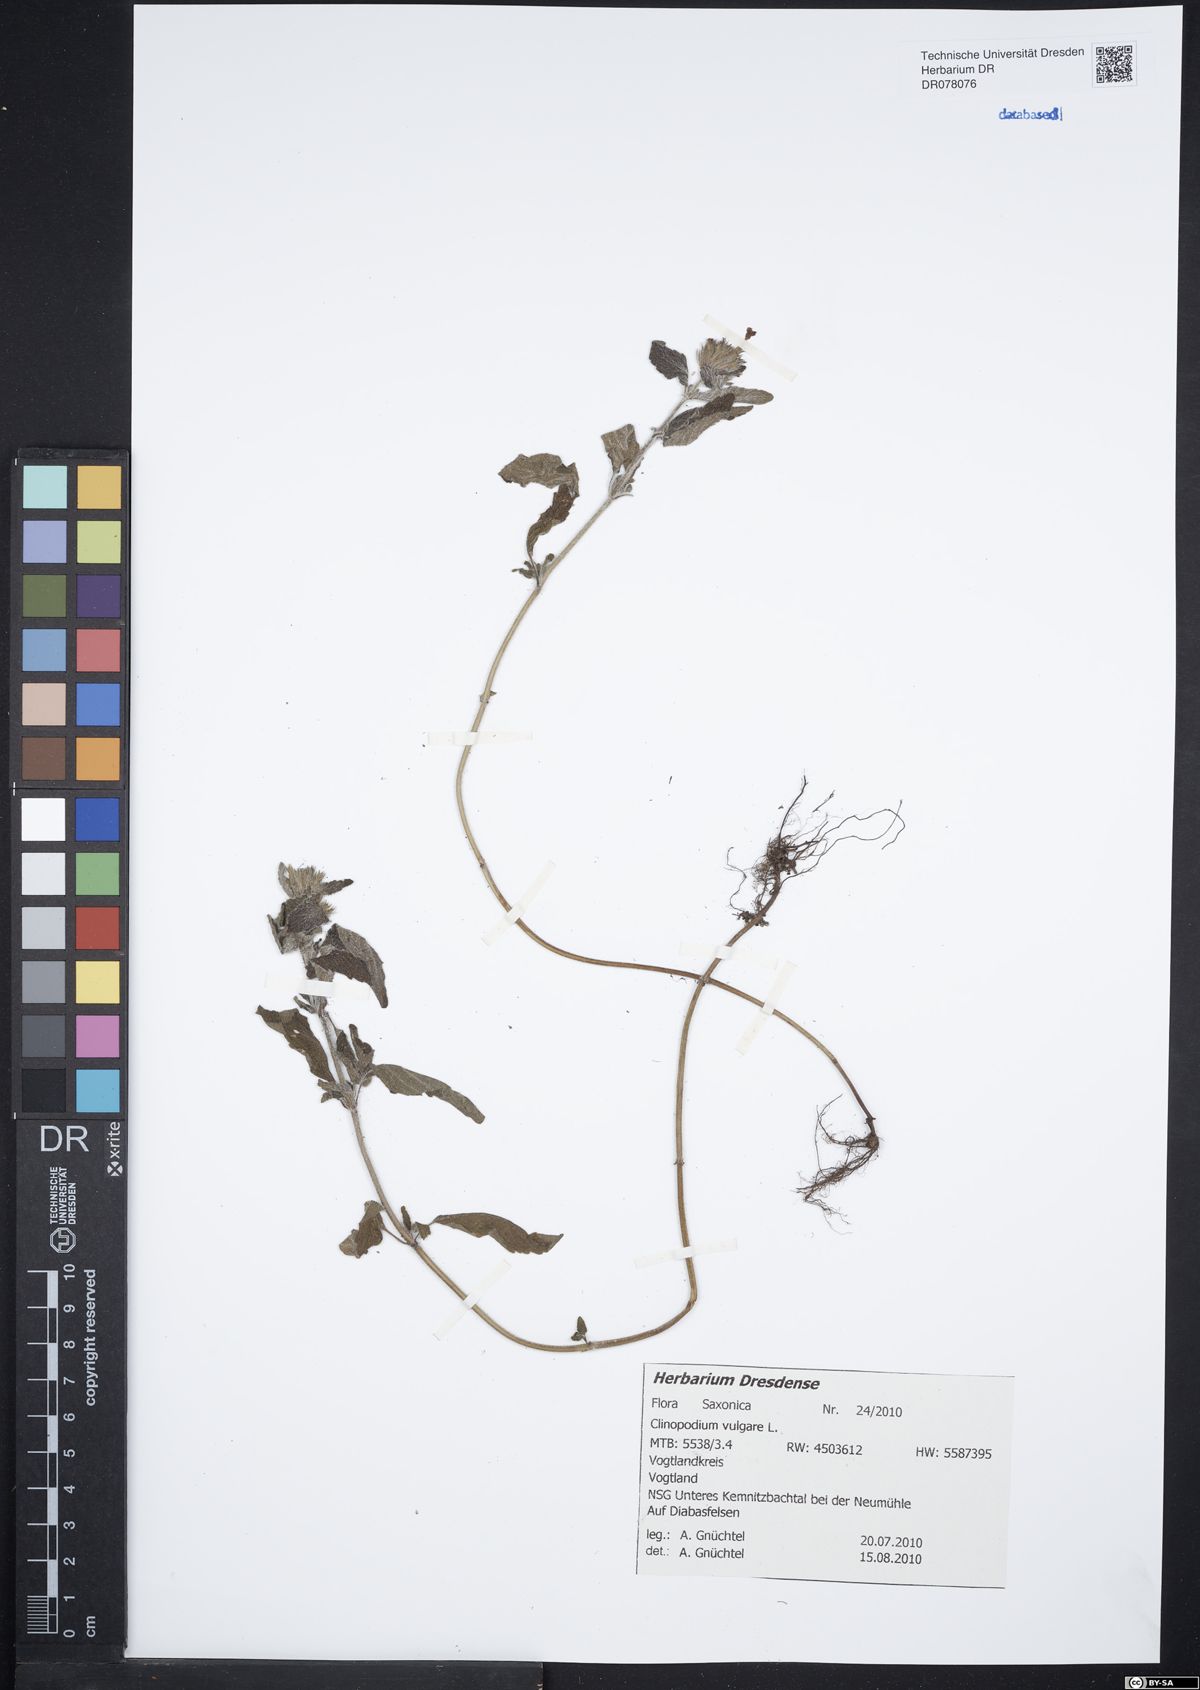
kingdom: Plantae
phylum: Tracheophyta
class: Magnoliopsida
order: Lamiales
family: Lamiaceae
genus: Clinopodium
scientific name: Clinopodium vulgare
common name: Wild basil
